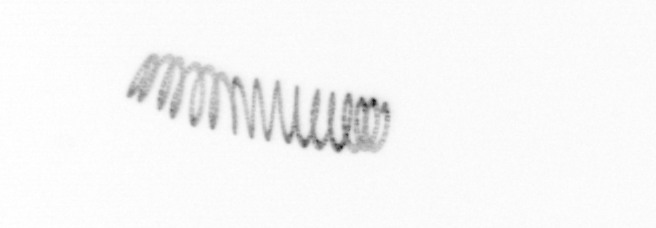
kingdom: Chromista
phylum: Ochrophyta
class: Bacillariophyceae
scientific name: Bacillariophyceae
